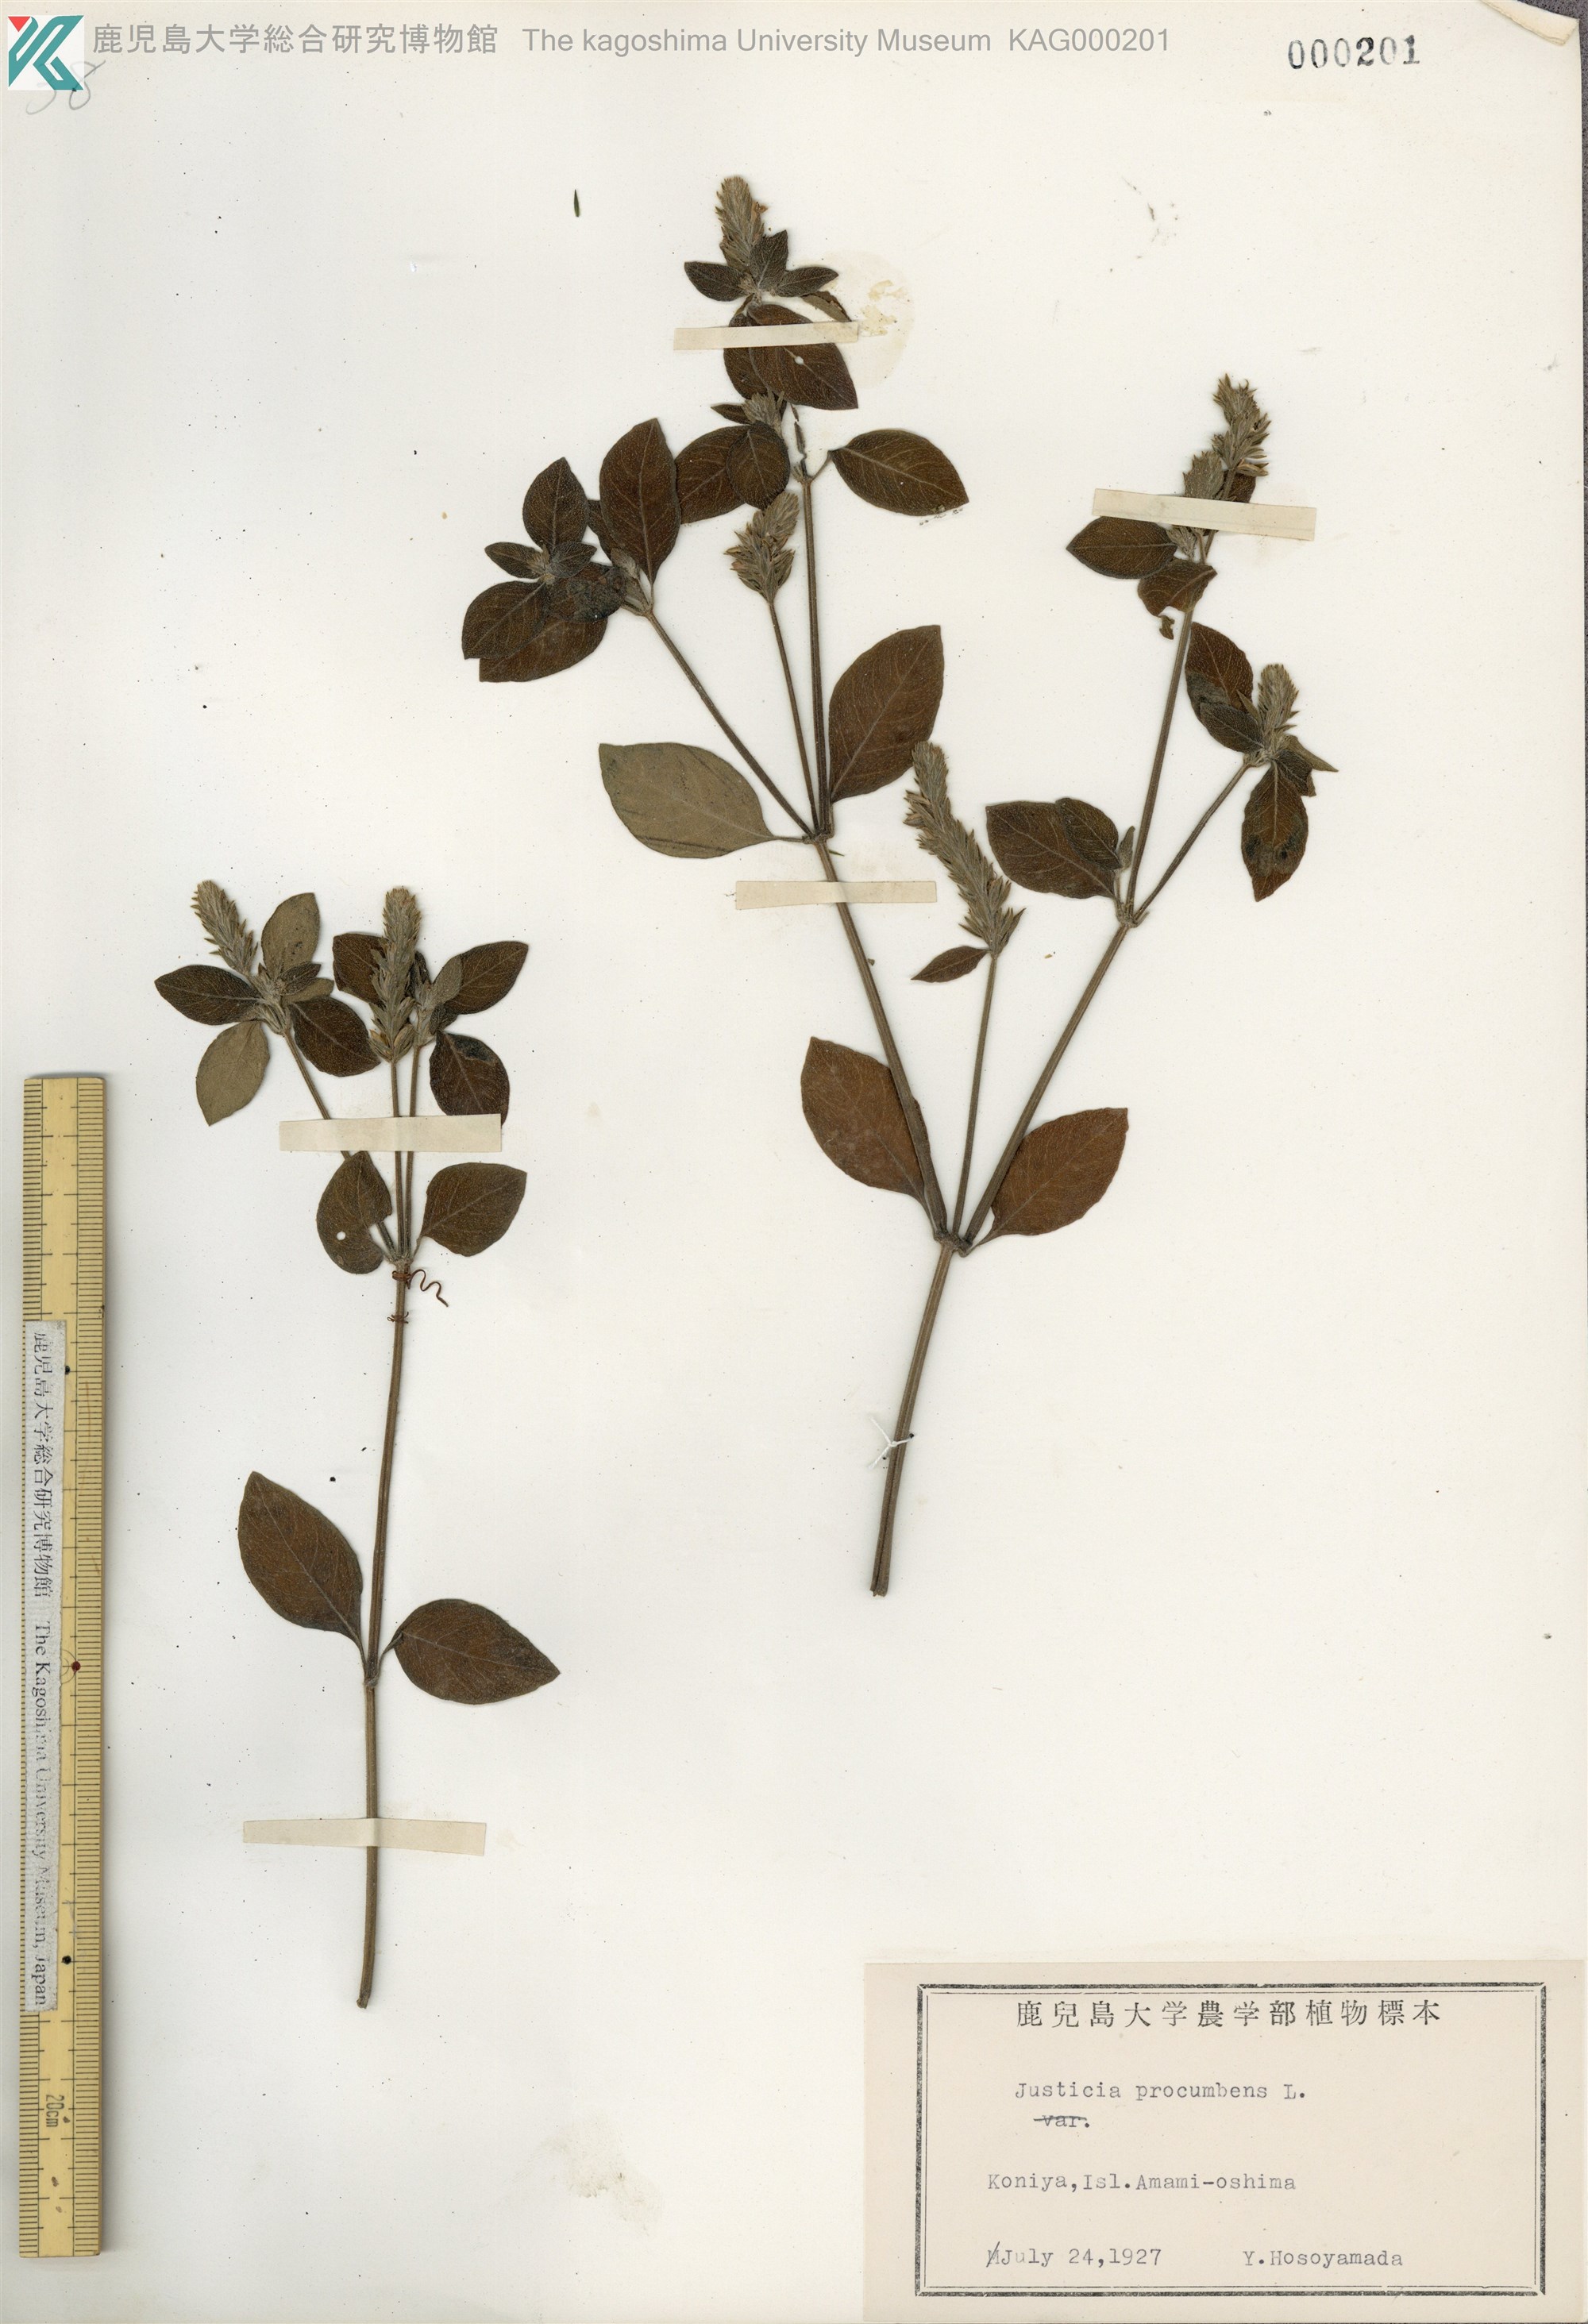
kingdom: Plantae
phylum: Tracheophyta
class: Magnoliopsida
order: Lamiales
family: Acanthaceae
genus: Rostellularia
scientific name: Rostellularia procumbens
